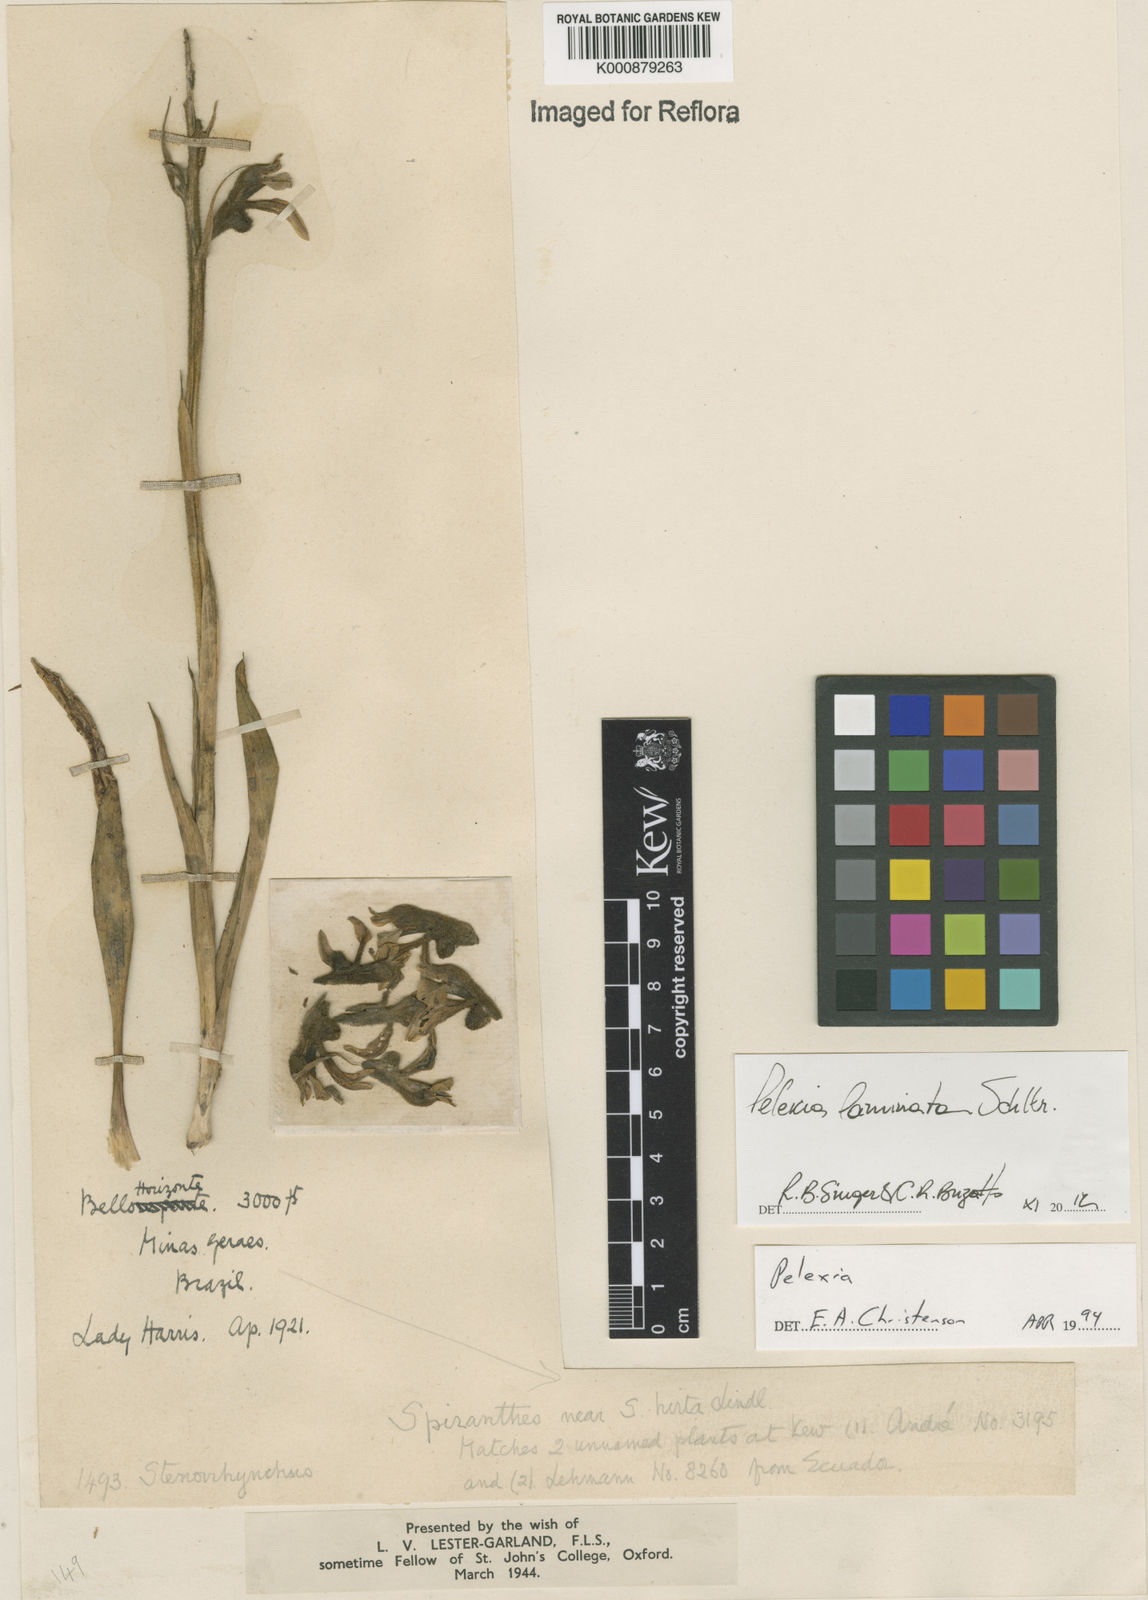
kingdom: Plantae
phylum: Tracheophyta
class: Liliopsida
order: Asparagales
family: Orchidaceae
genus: Pelexia
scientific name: Pelexia laminata
